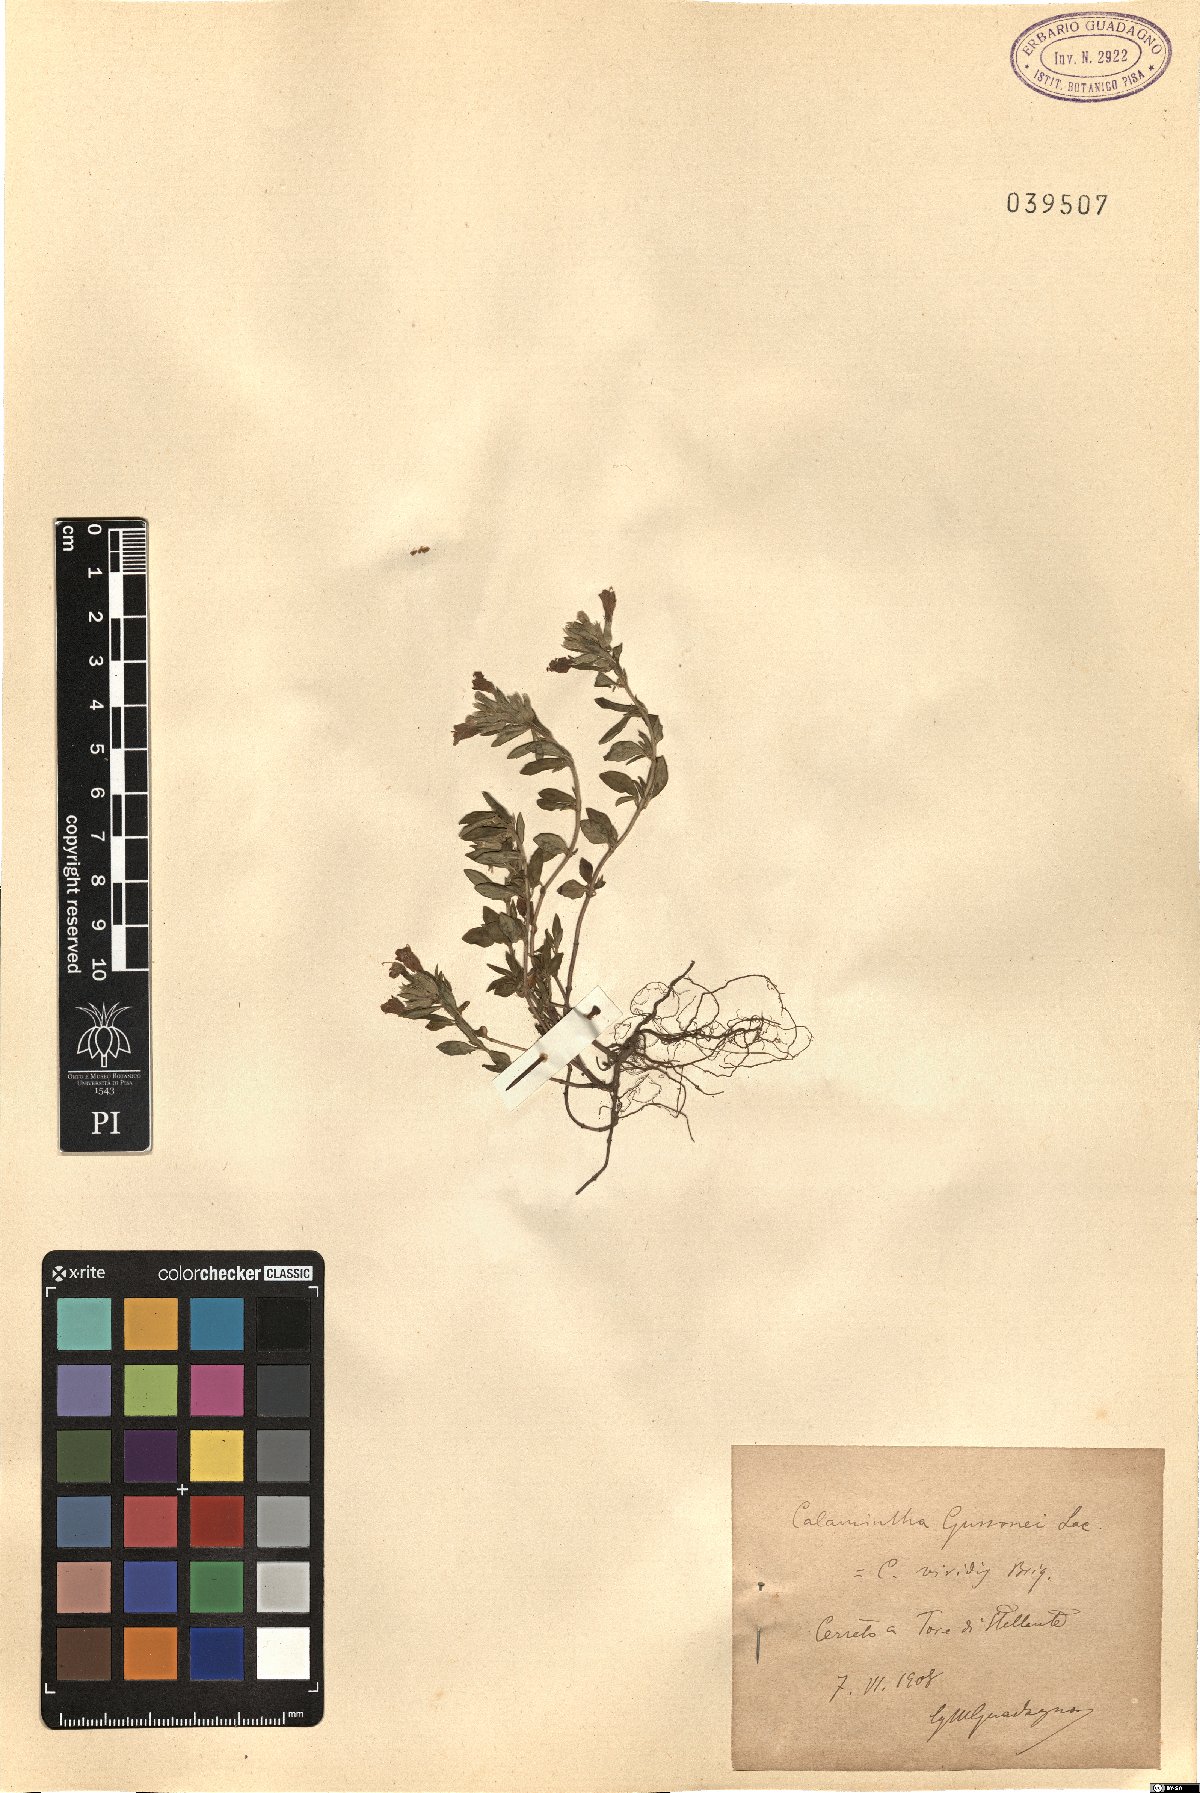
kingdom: Plantae
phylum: Tracheophyta
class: Magnoliopsida
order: Lamiales
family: Lamiaceae
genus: Clinopodium
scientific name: Clinopodium Calamintha gussonei
